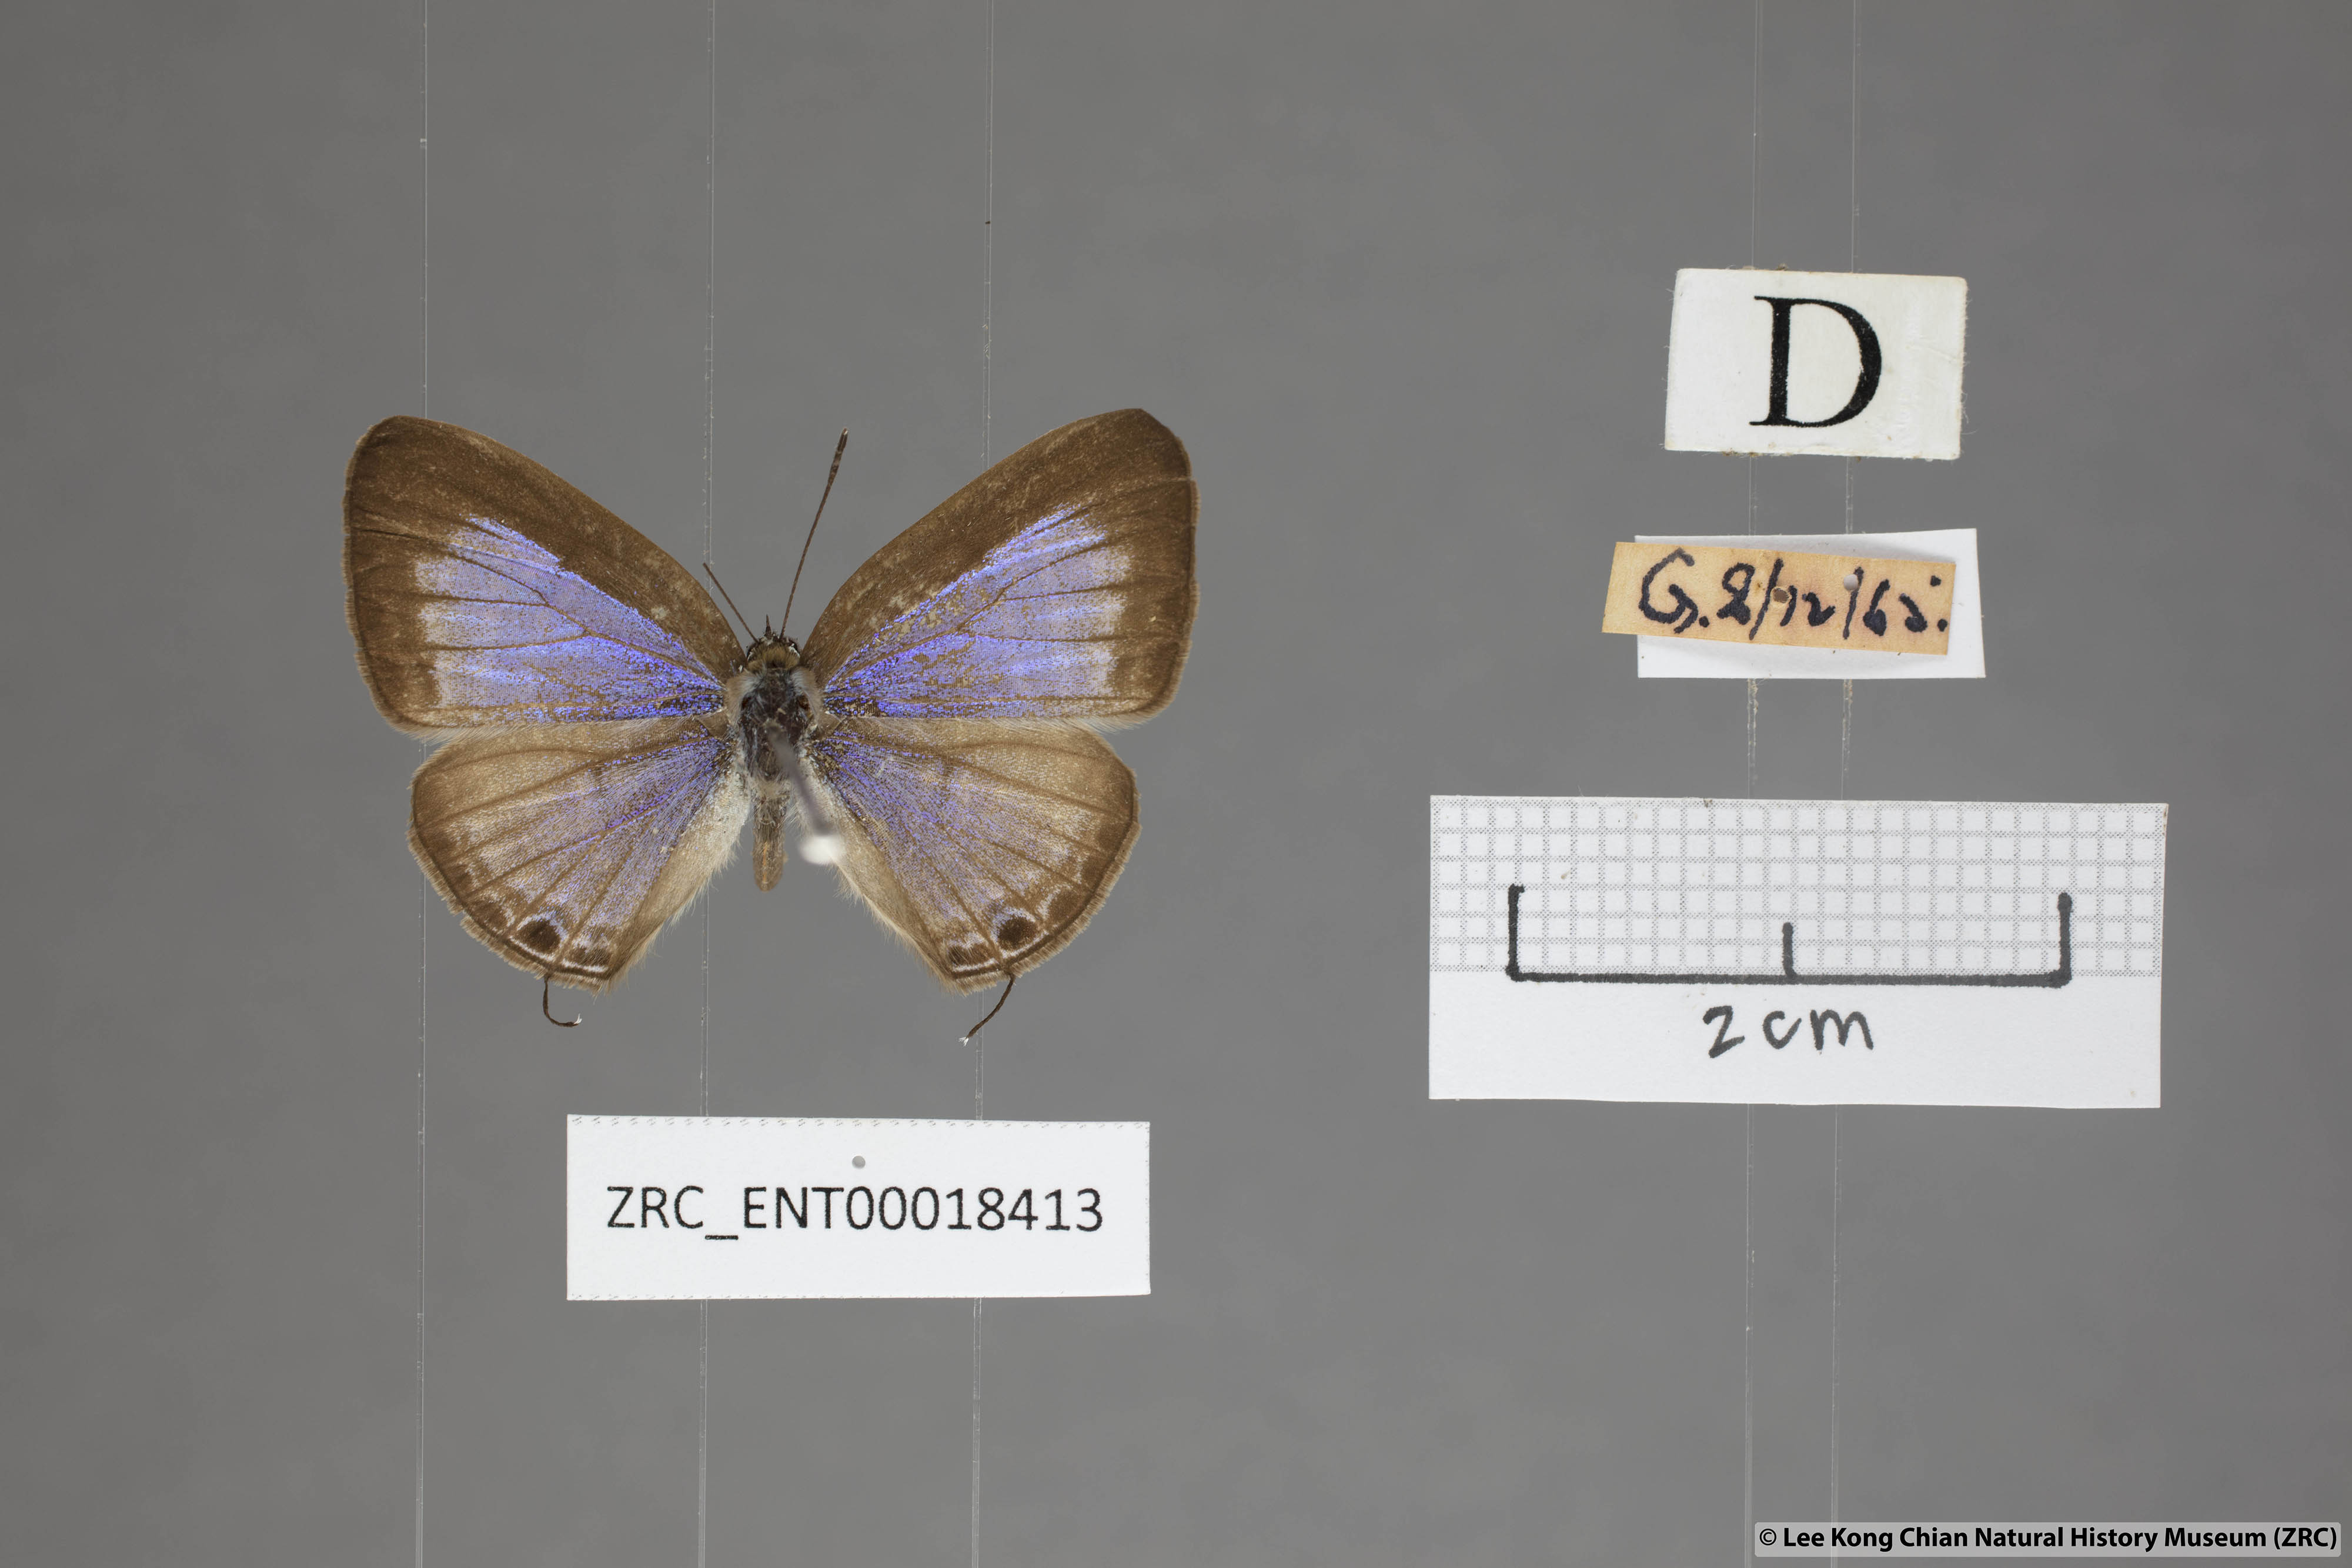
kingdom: Animalia
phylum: Arthropoda
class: Insecta
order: Lepidoptera
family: Lycaenidae
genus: Nacaduba
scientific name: Nacaduba pactolus
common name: Large fourline blue
